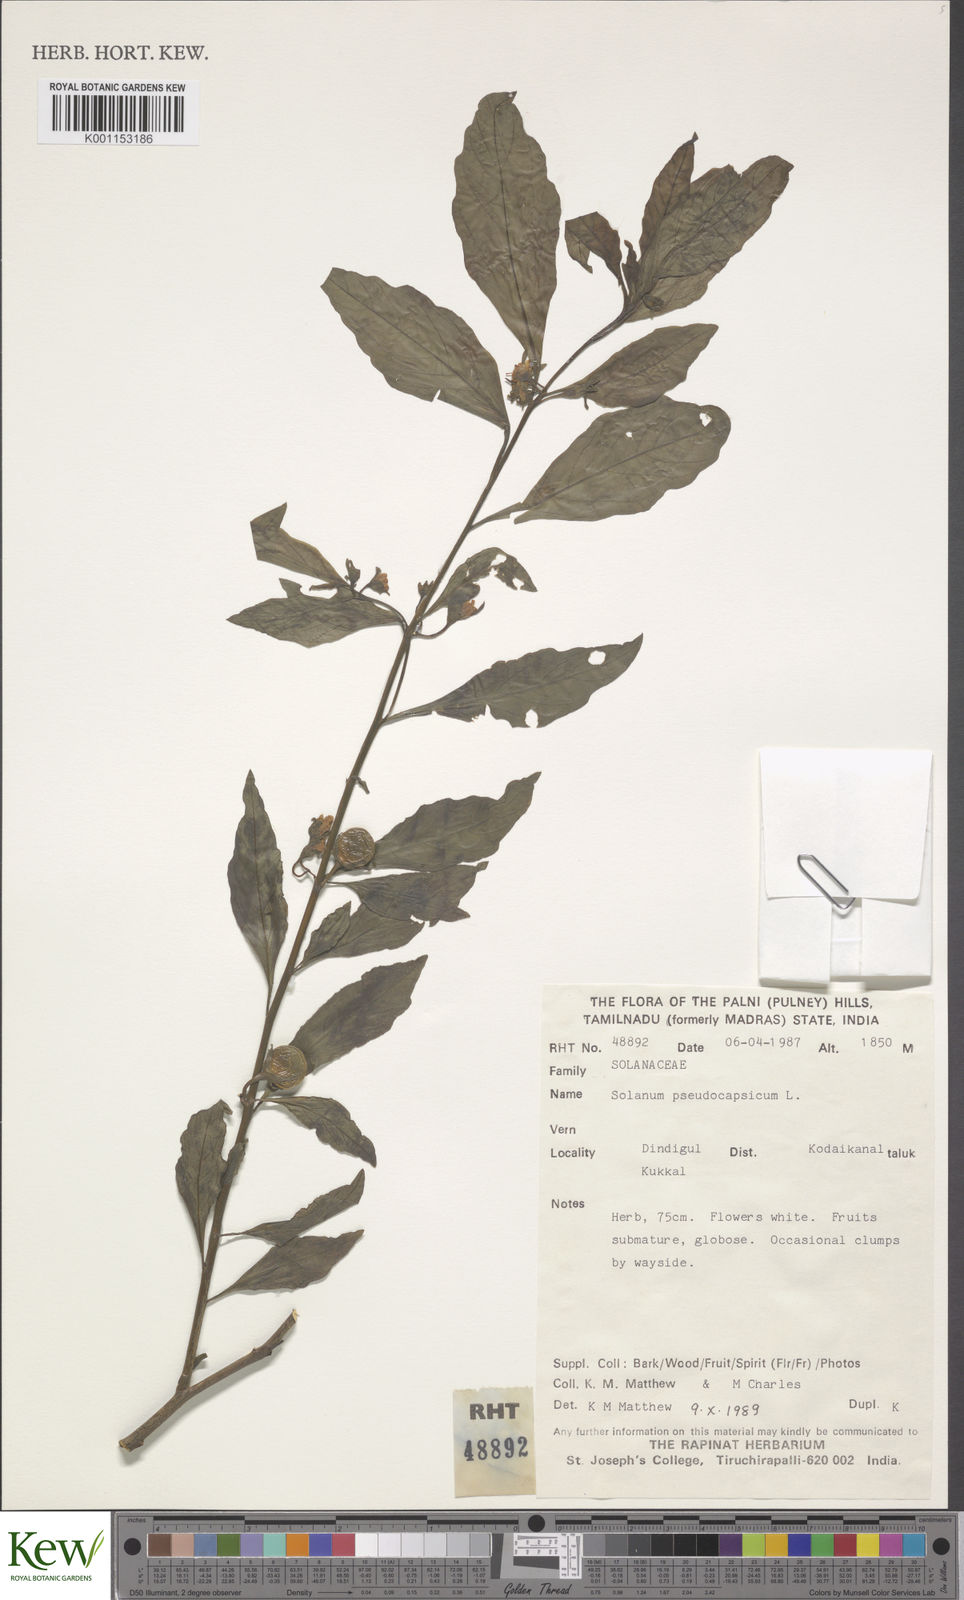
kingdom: Plantae
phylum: Tracheophyta
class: Magnoliopsida
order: Solanales
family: Solanaceae
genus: Solanum
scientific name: Solanum pseudocapsicum
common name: Jerusalem cherry
